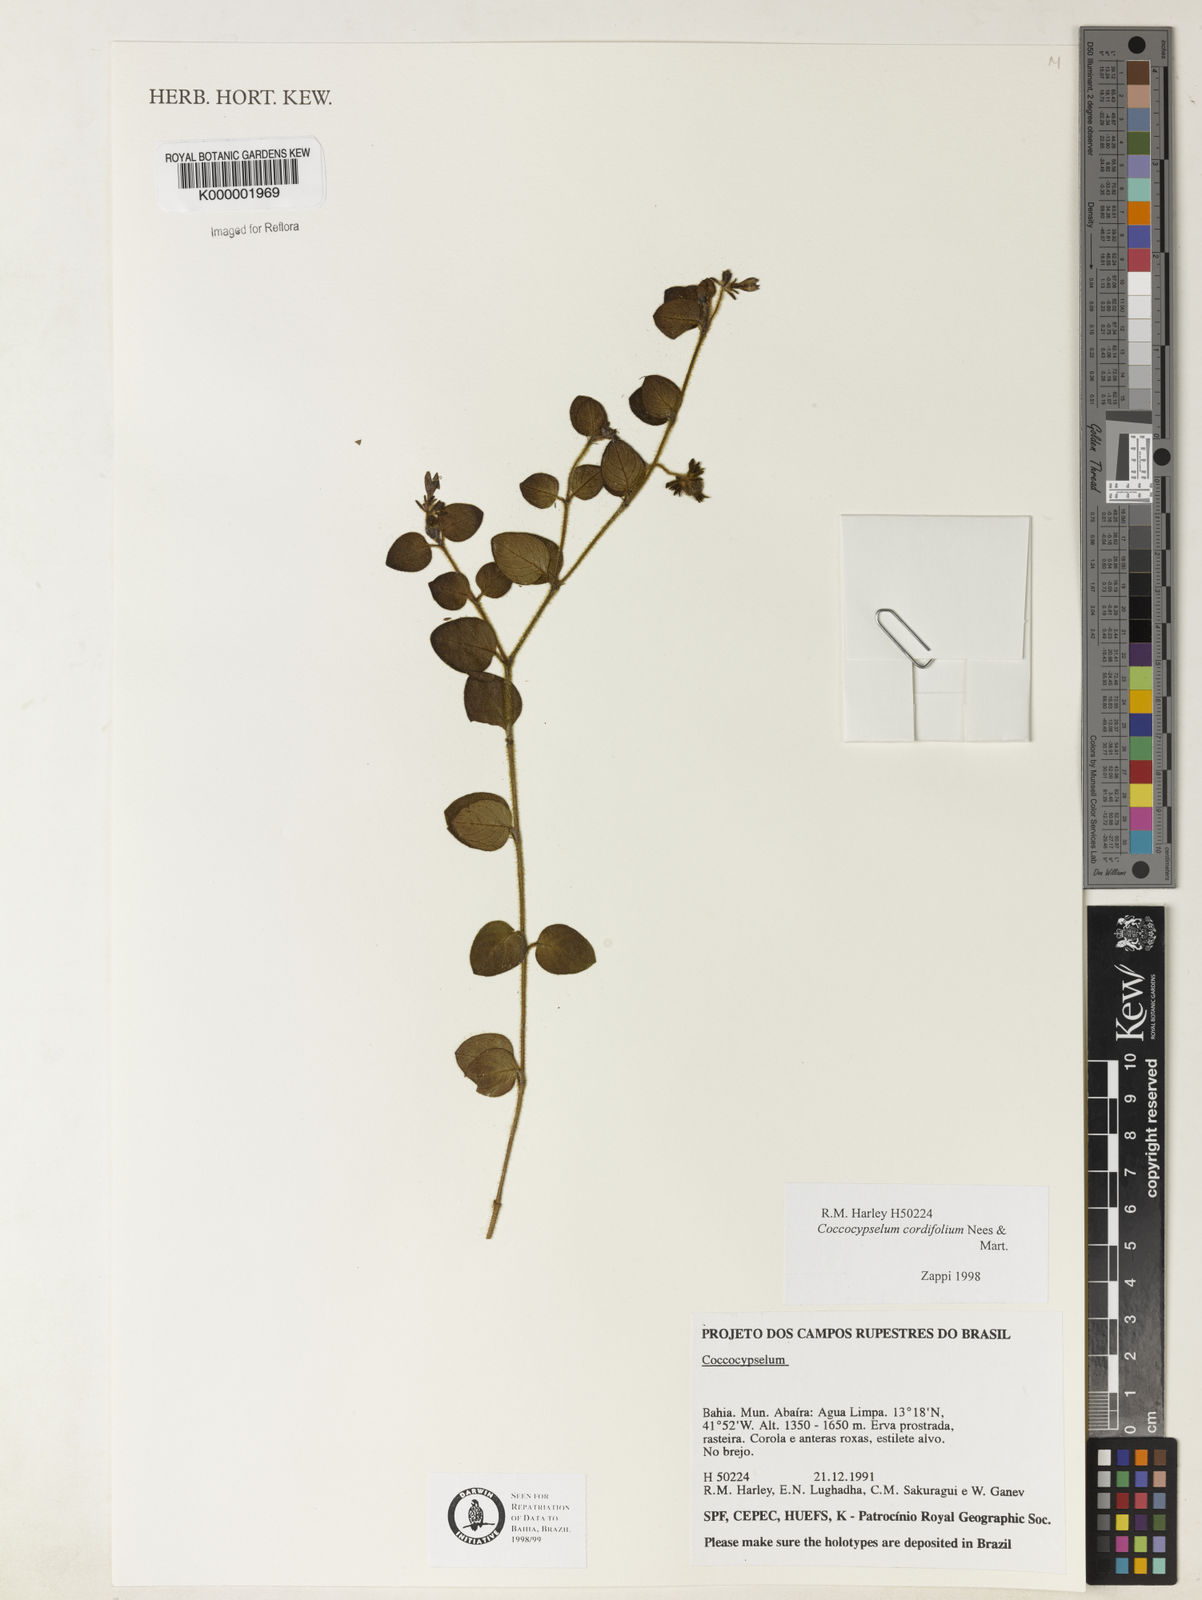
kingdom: Plantae
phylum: Tracheophyta
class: Magnoliopsida
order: Gentianales
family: Rubiaceae
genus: Coccocypselum
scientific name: Coccocypselum cordifolium
